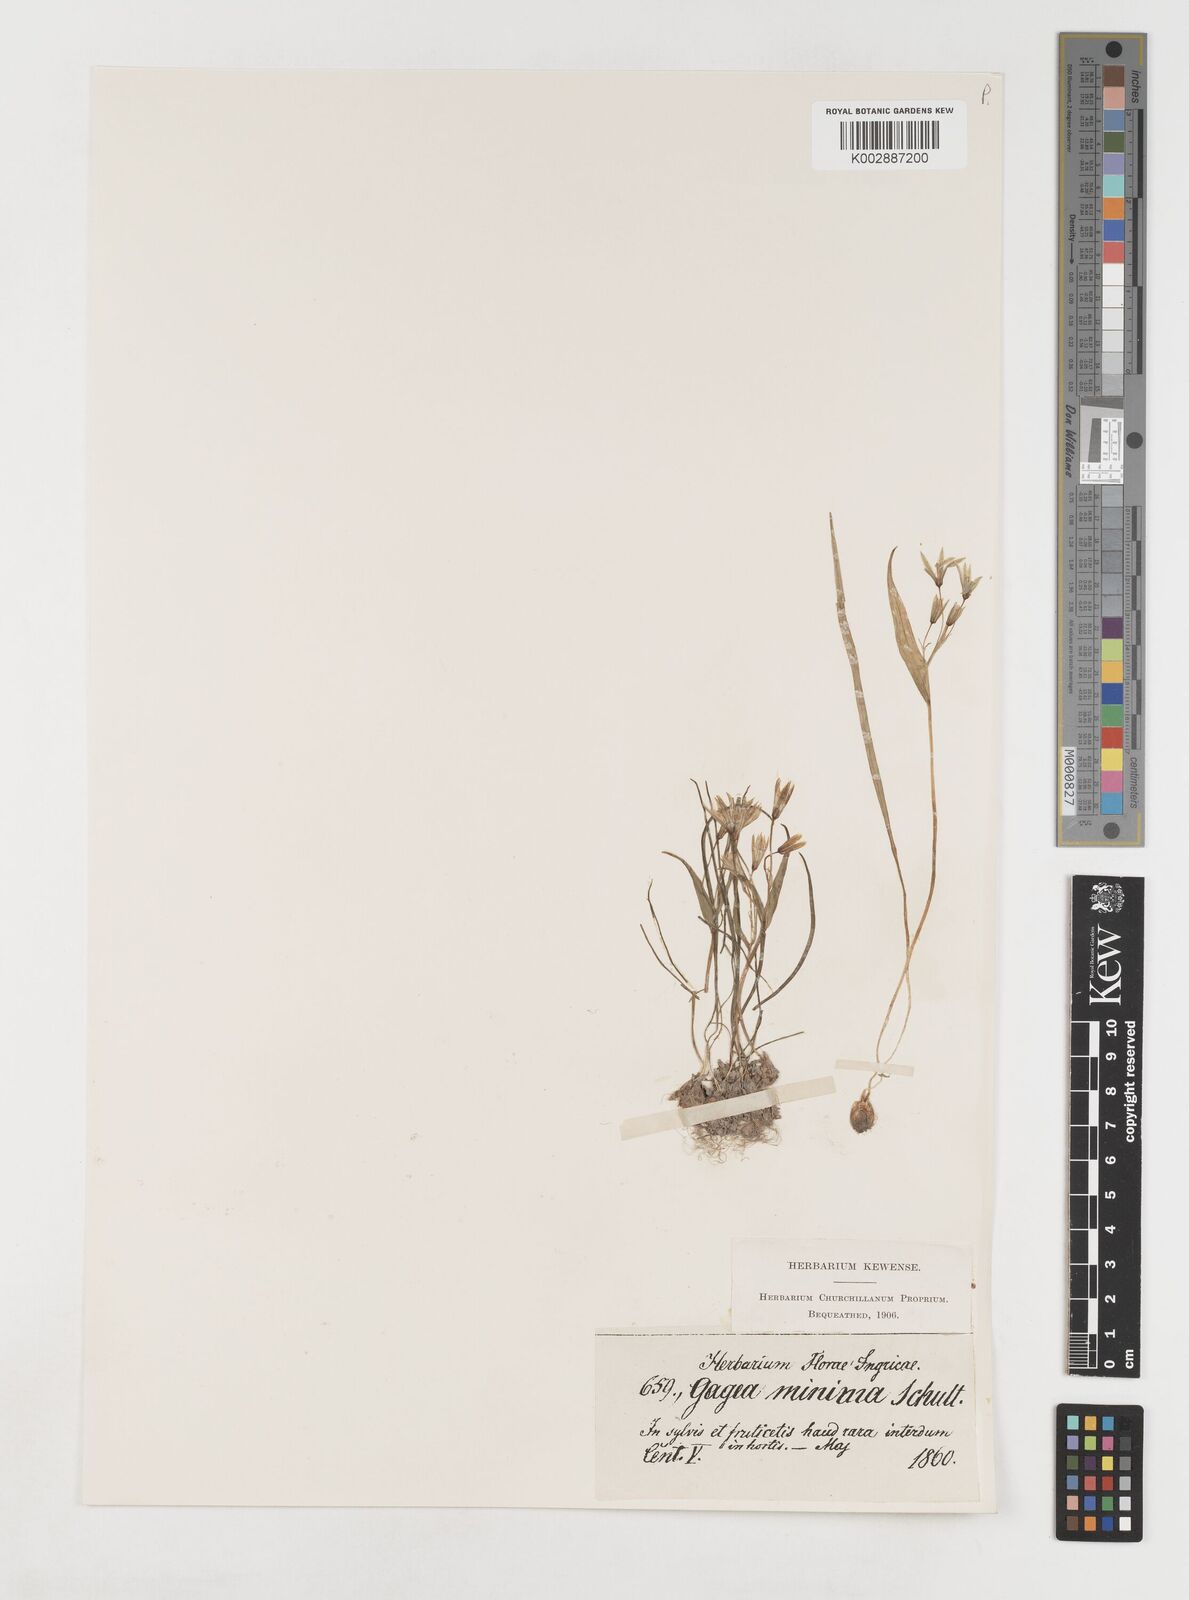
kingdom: Plantae
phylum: Tracheophyta
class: Liliopsida
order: Liliales
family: Liliaceae
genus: Gagea
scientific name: Gagea minima
